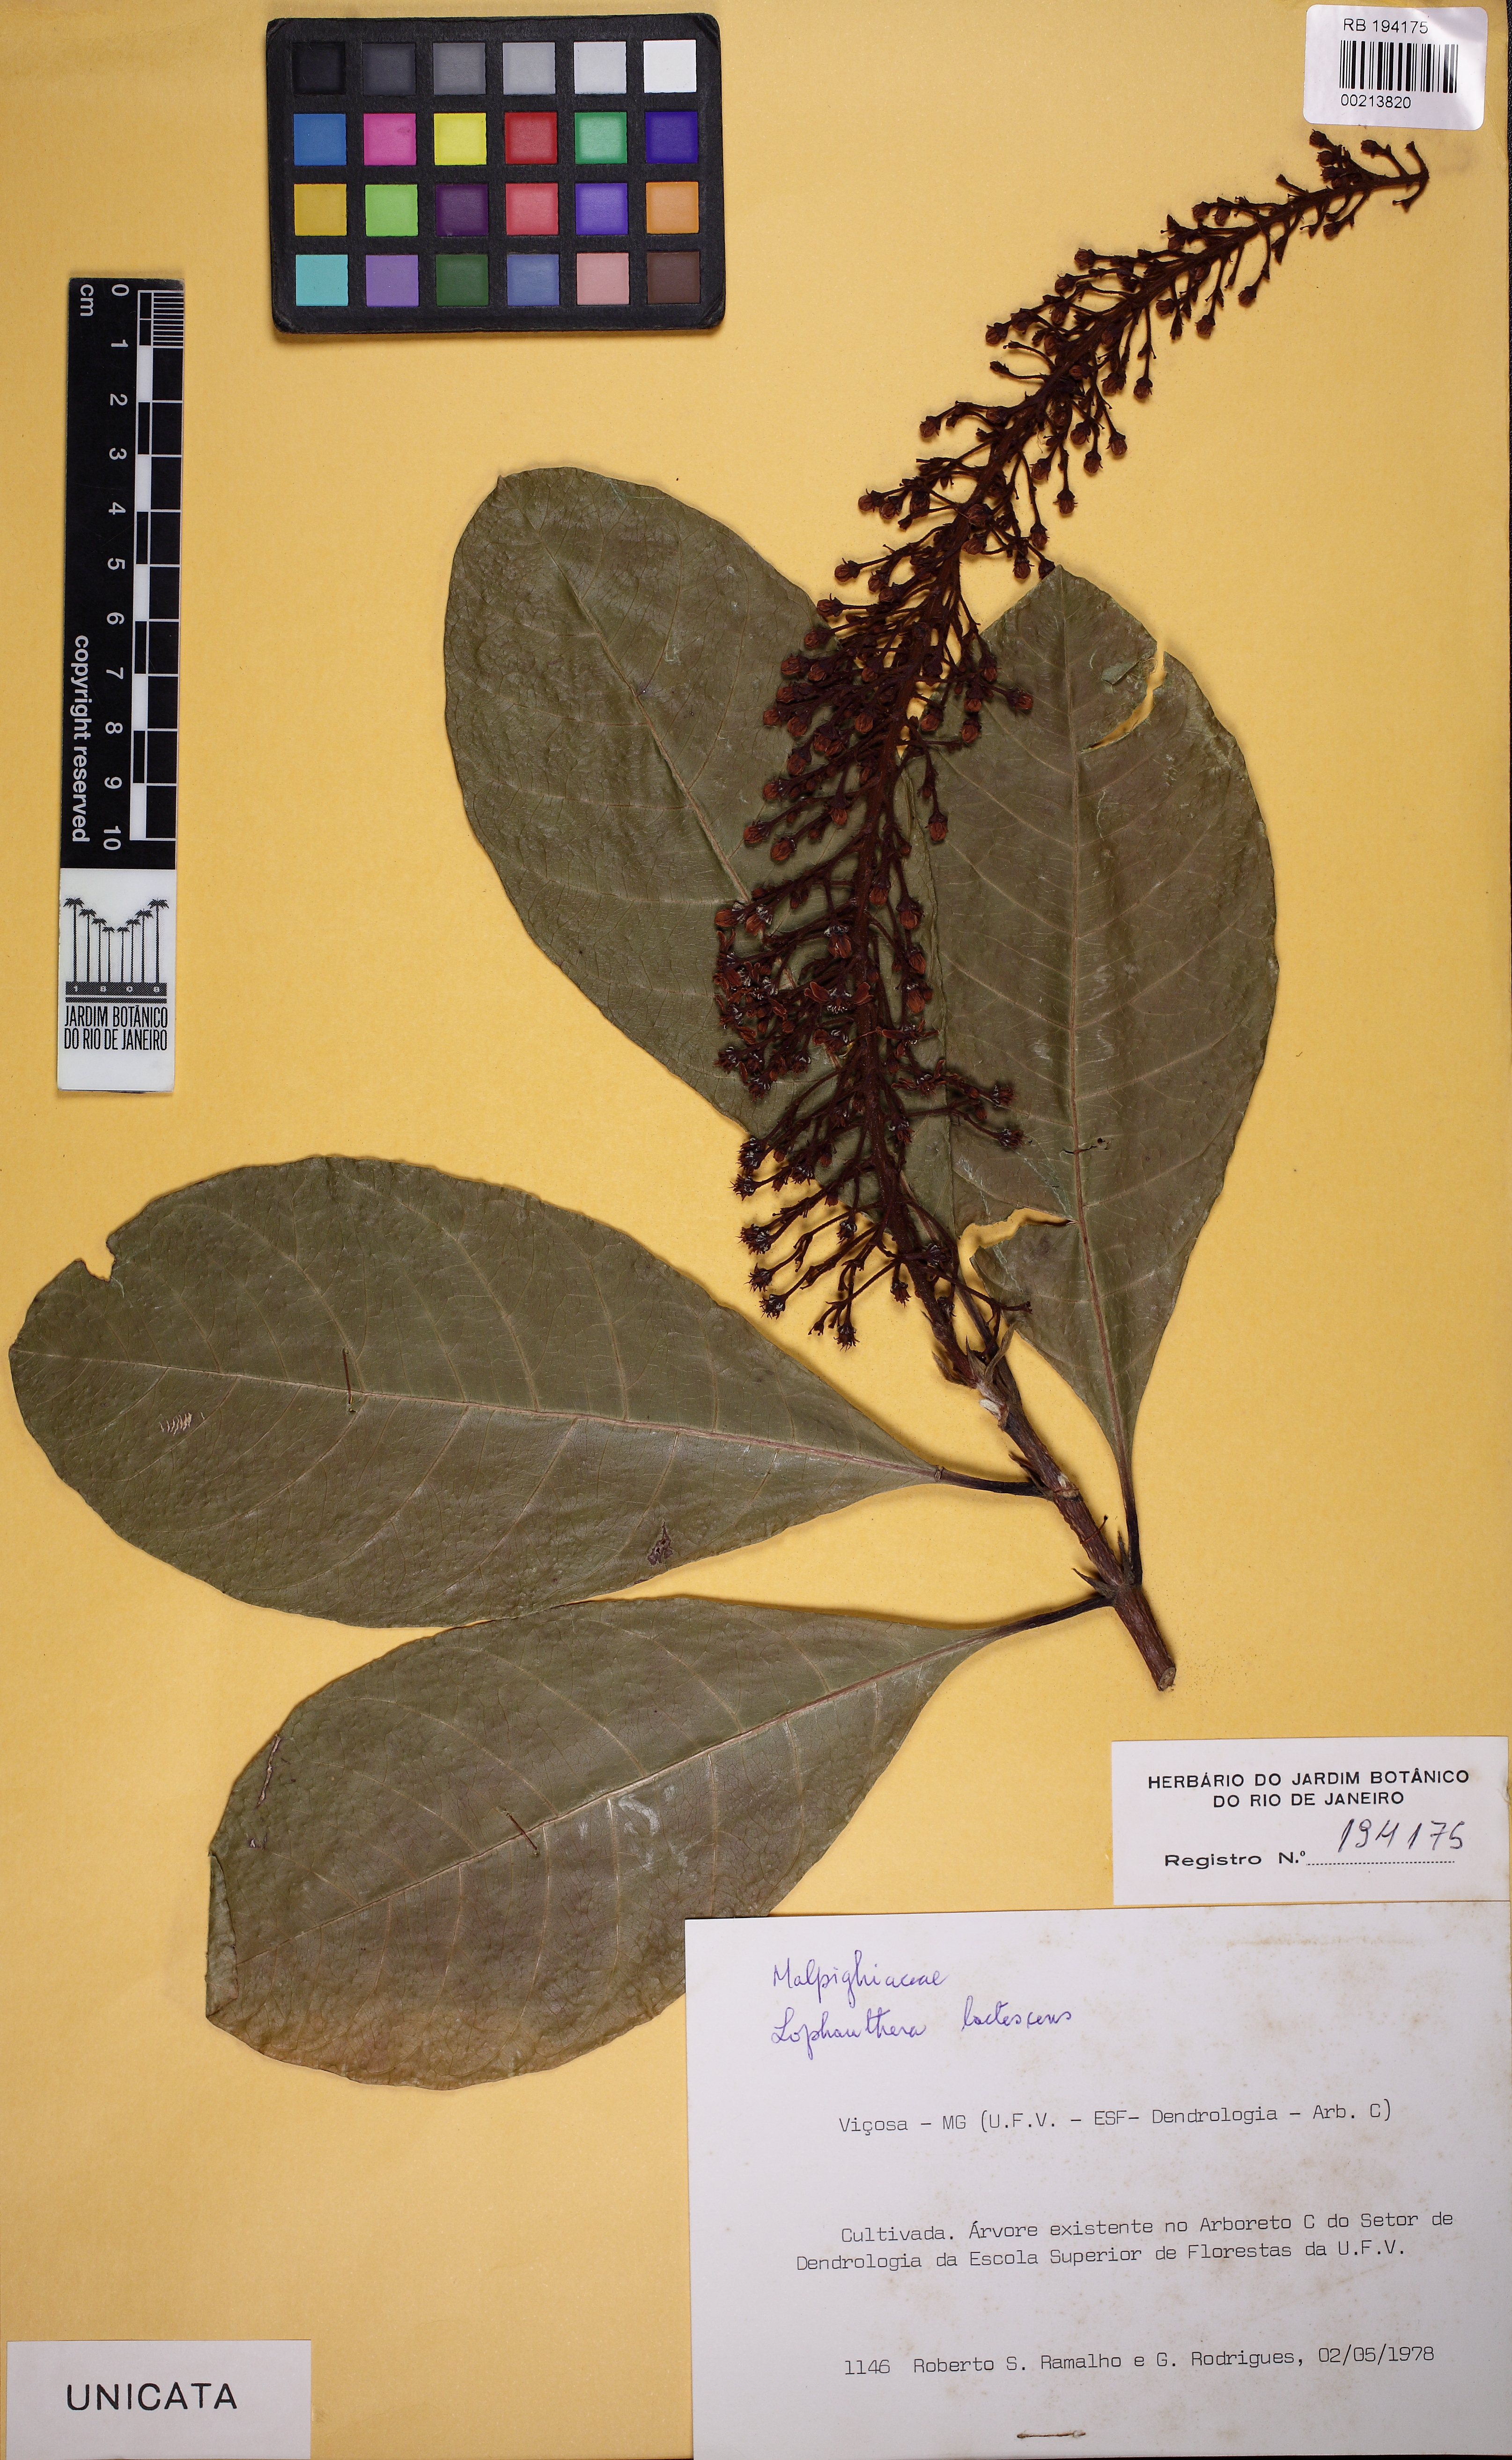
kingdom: Plantae
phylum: Tracheophyta
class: Magnoliopsida
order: Malpighiales
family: Malpighiaceae
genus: Lophanthera
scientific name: Lophanthera lactescens
